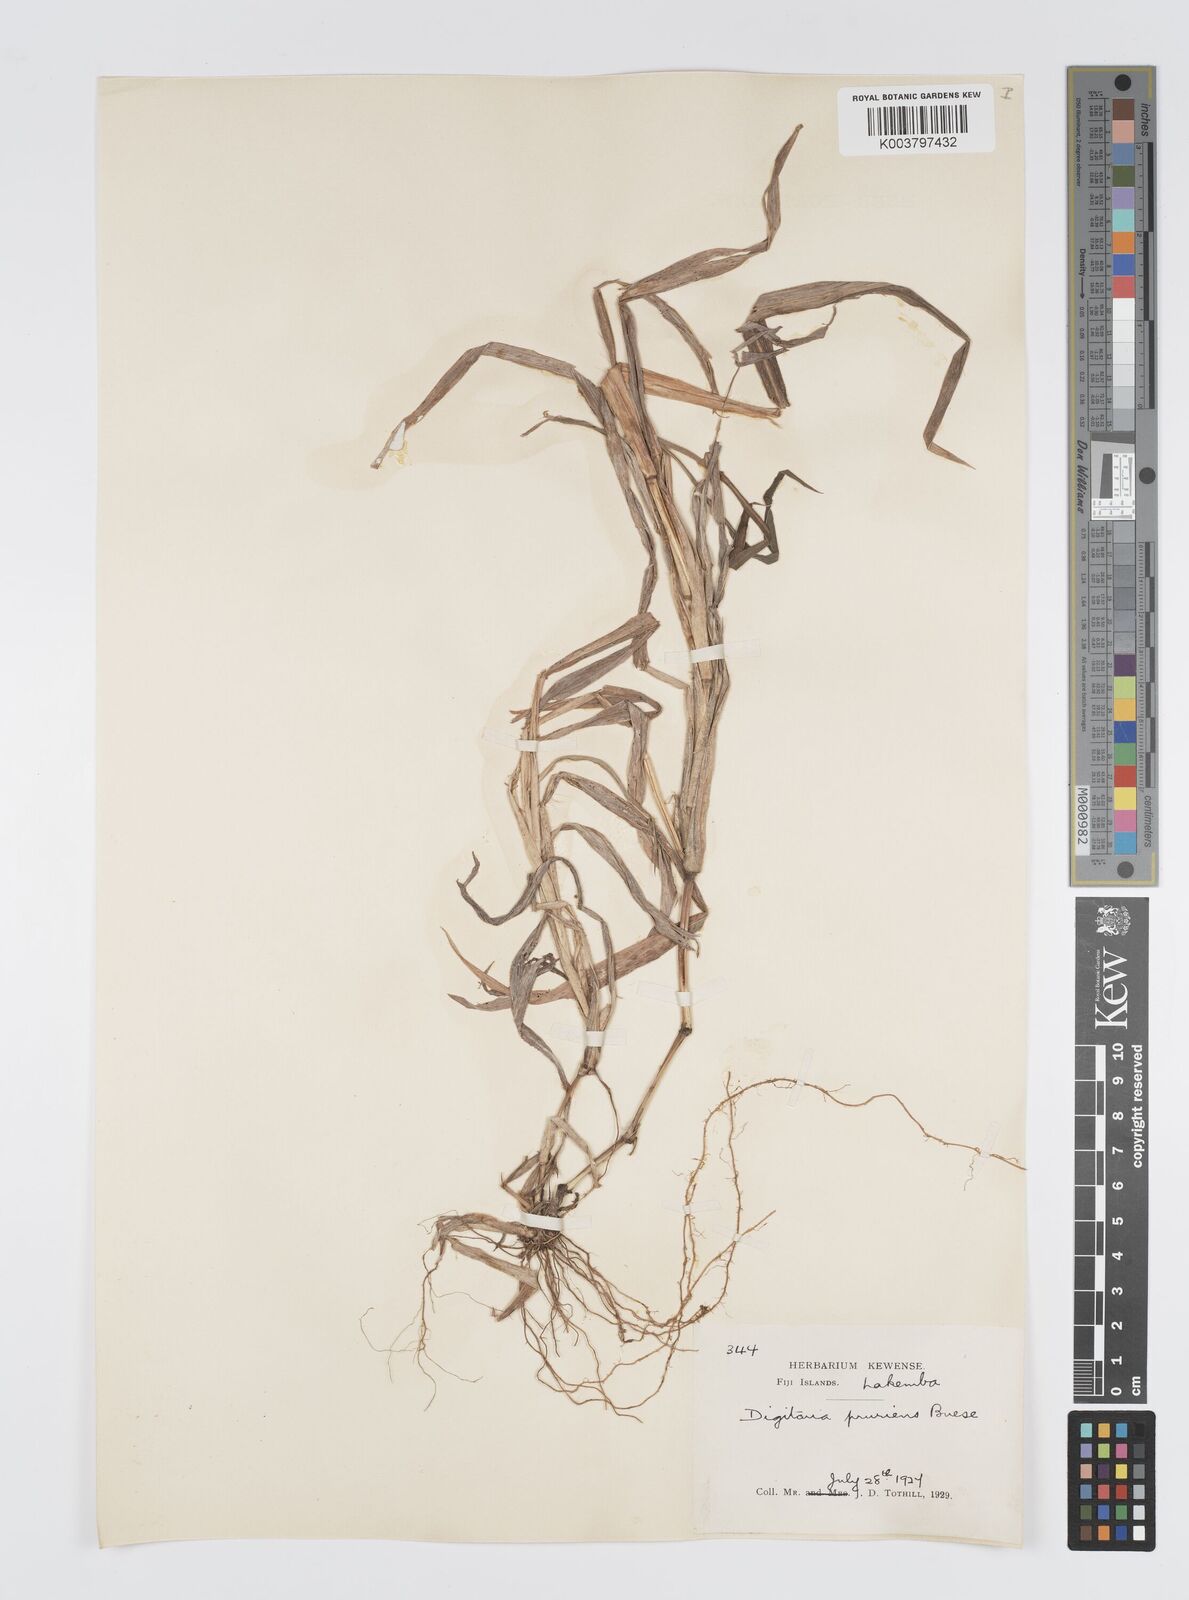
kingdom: Plantae
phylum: Tracheophyta
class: Liliopsida
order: Poales
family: Poaceae
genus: Digitaria
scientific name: Digitaria setigera
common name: East indian crabgrass
